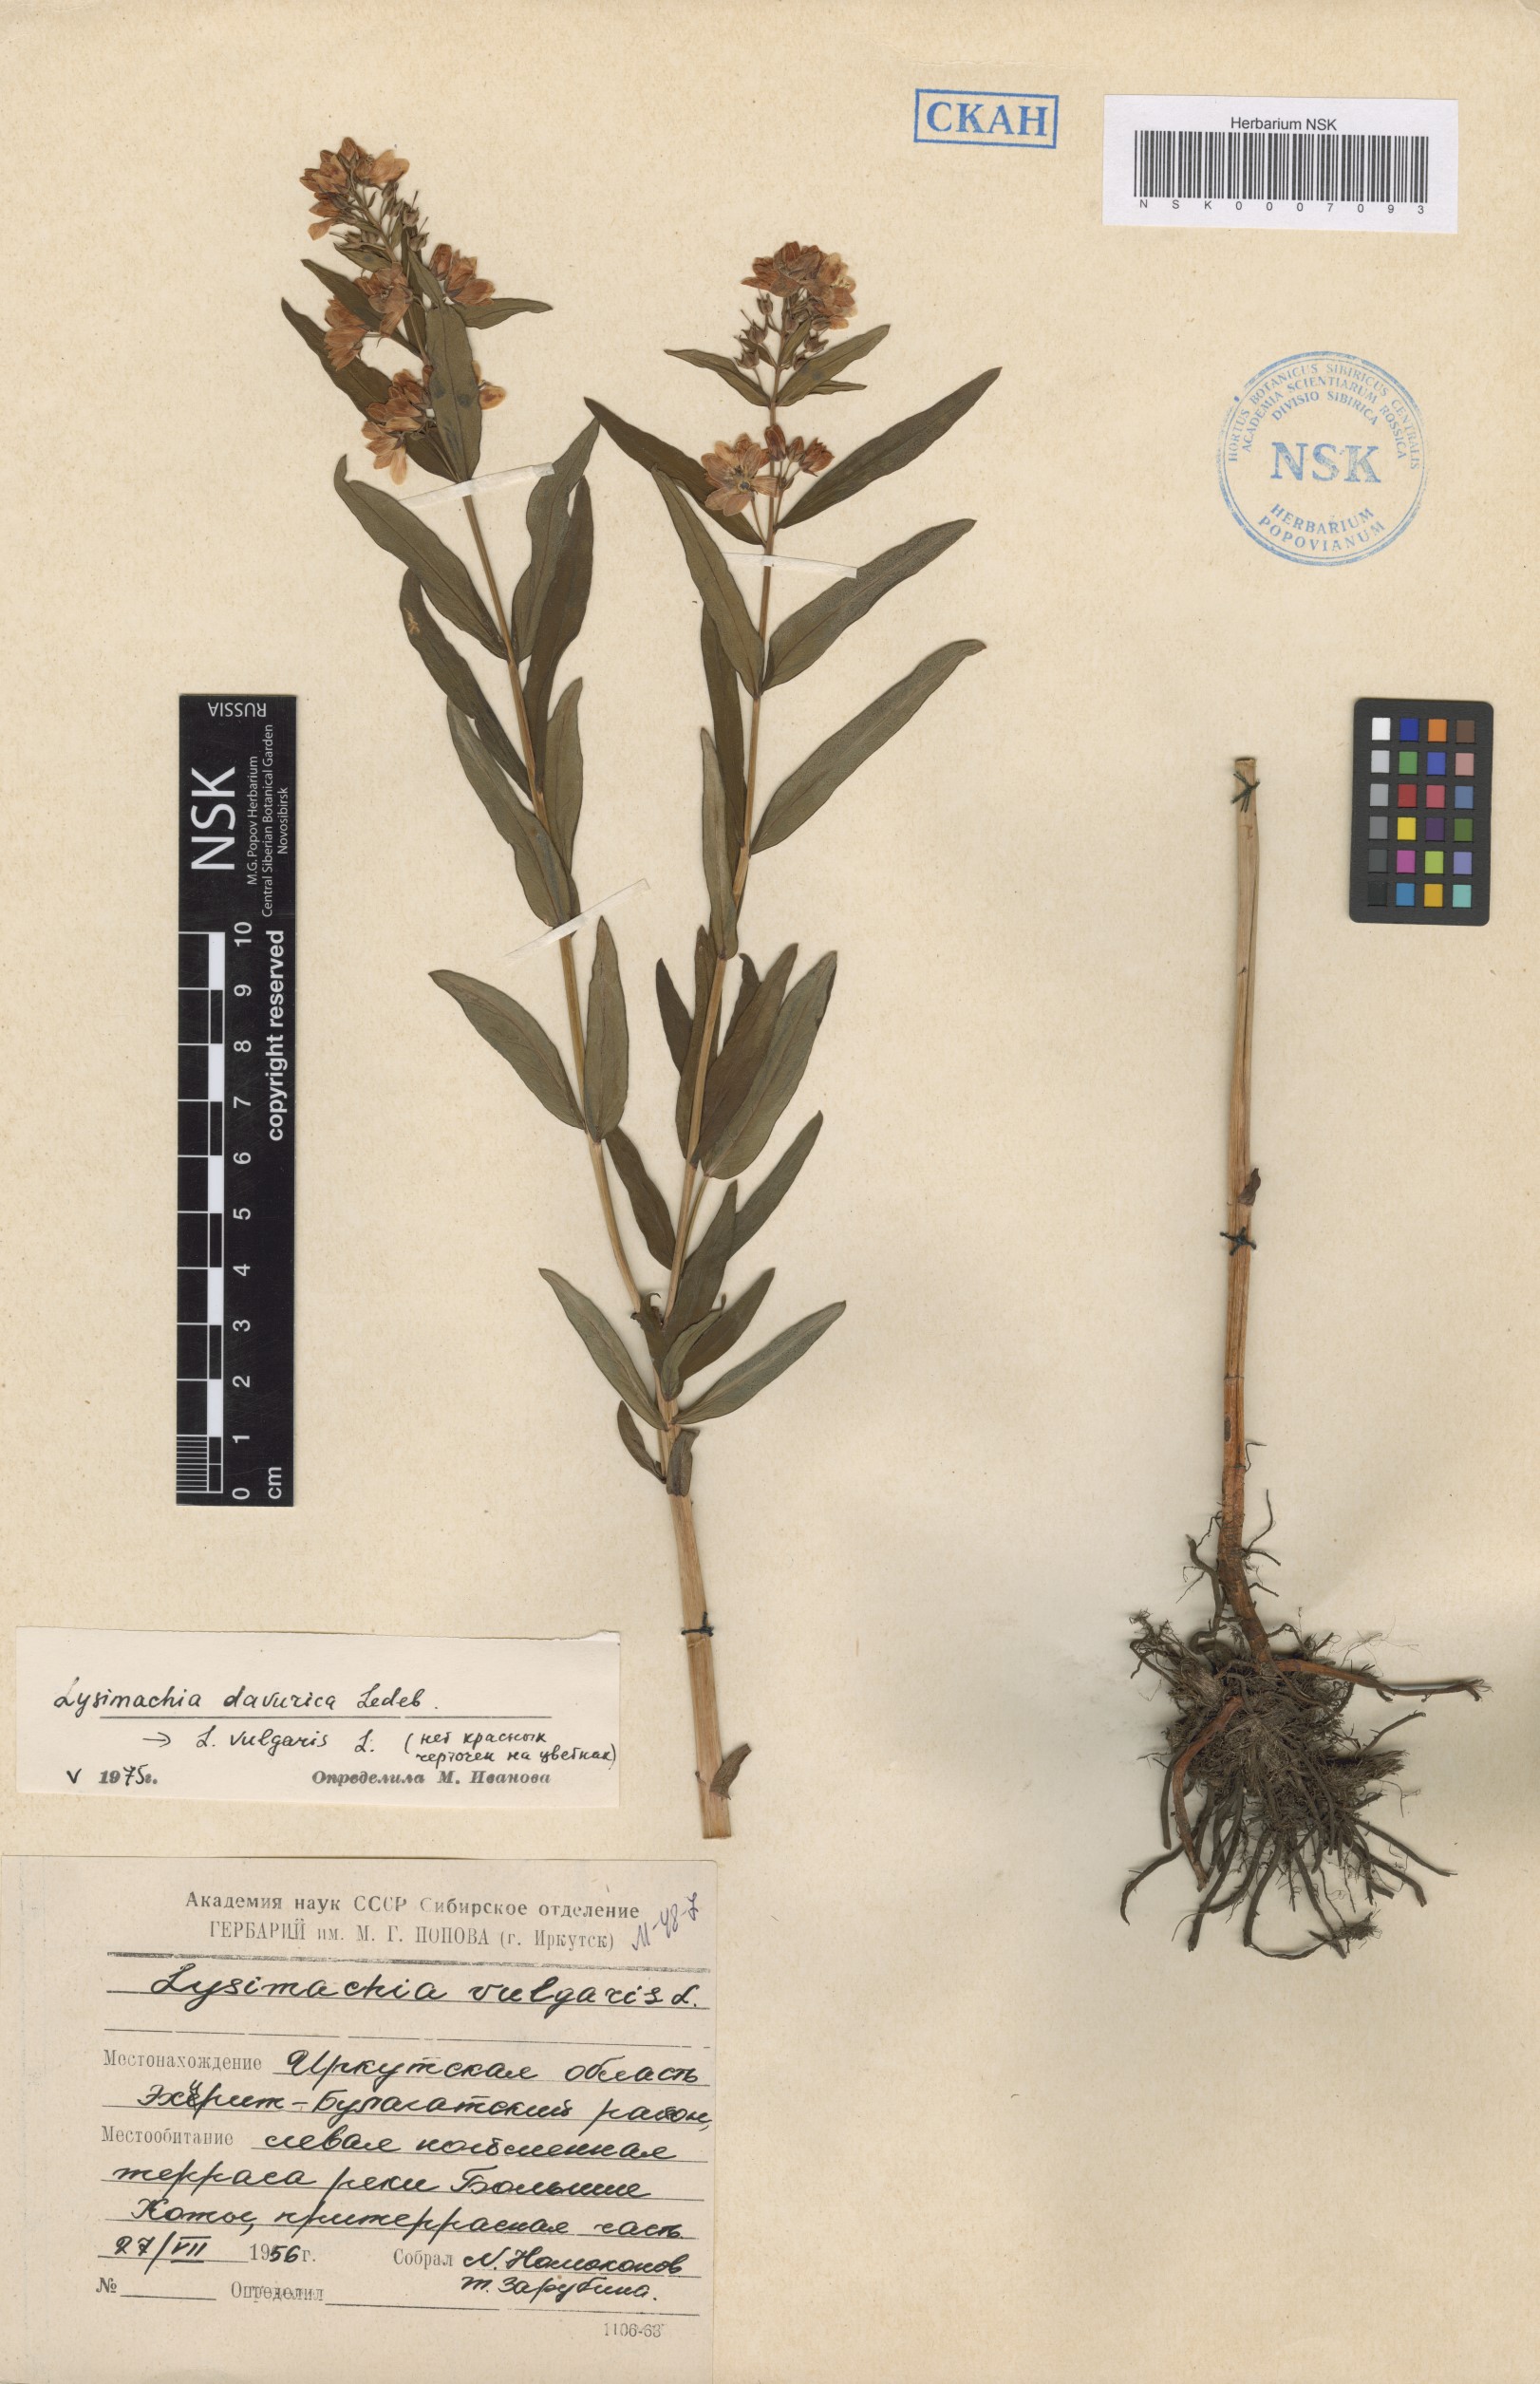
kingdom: Plantae
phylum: Tracheophyta
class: Magnoliopsida
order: Ericales
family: Primulaceae
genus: Lysimachia
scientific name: Lysimachia davurica
